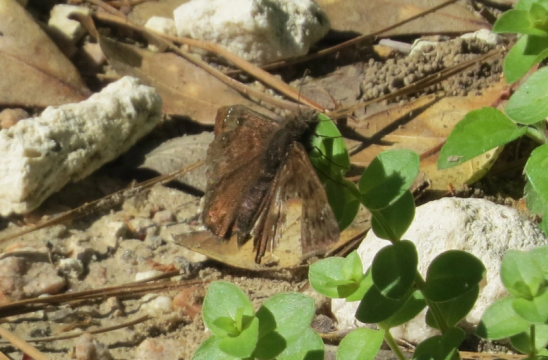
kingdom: Animalia
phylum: Arthropoda
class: Insecta
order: Lepidoptera
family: Hesperiidae
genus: Gesta
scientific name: Gesta
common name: Juvenal's Duskywing
